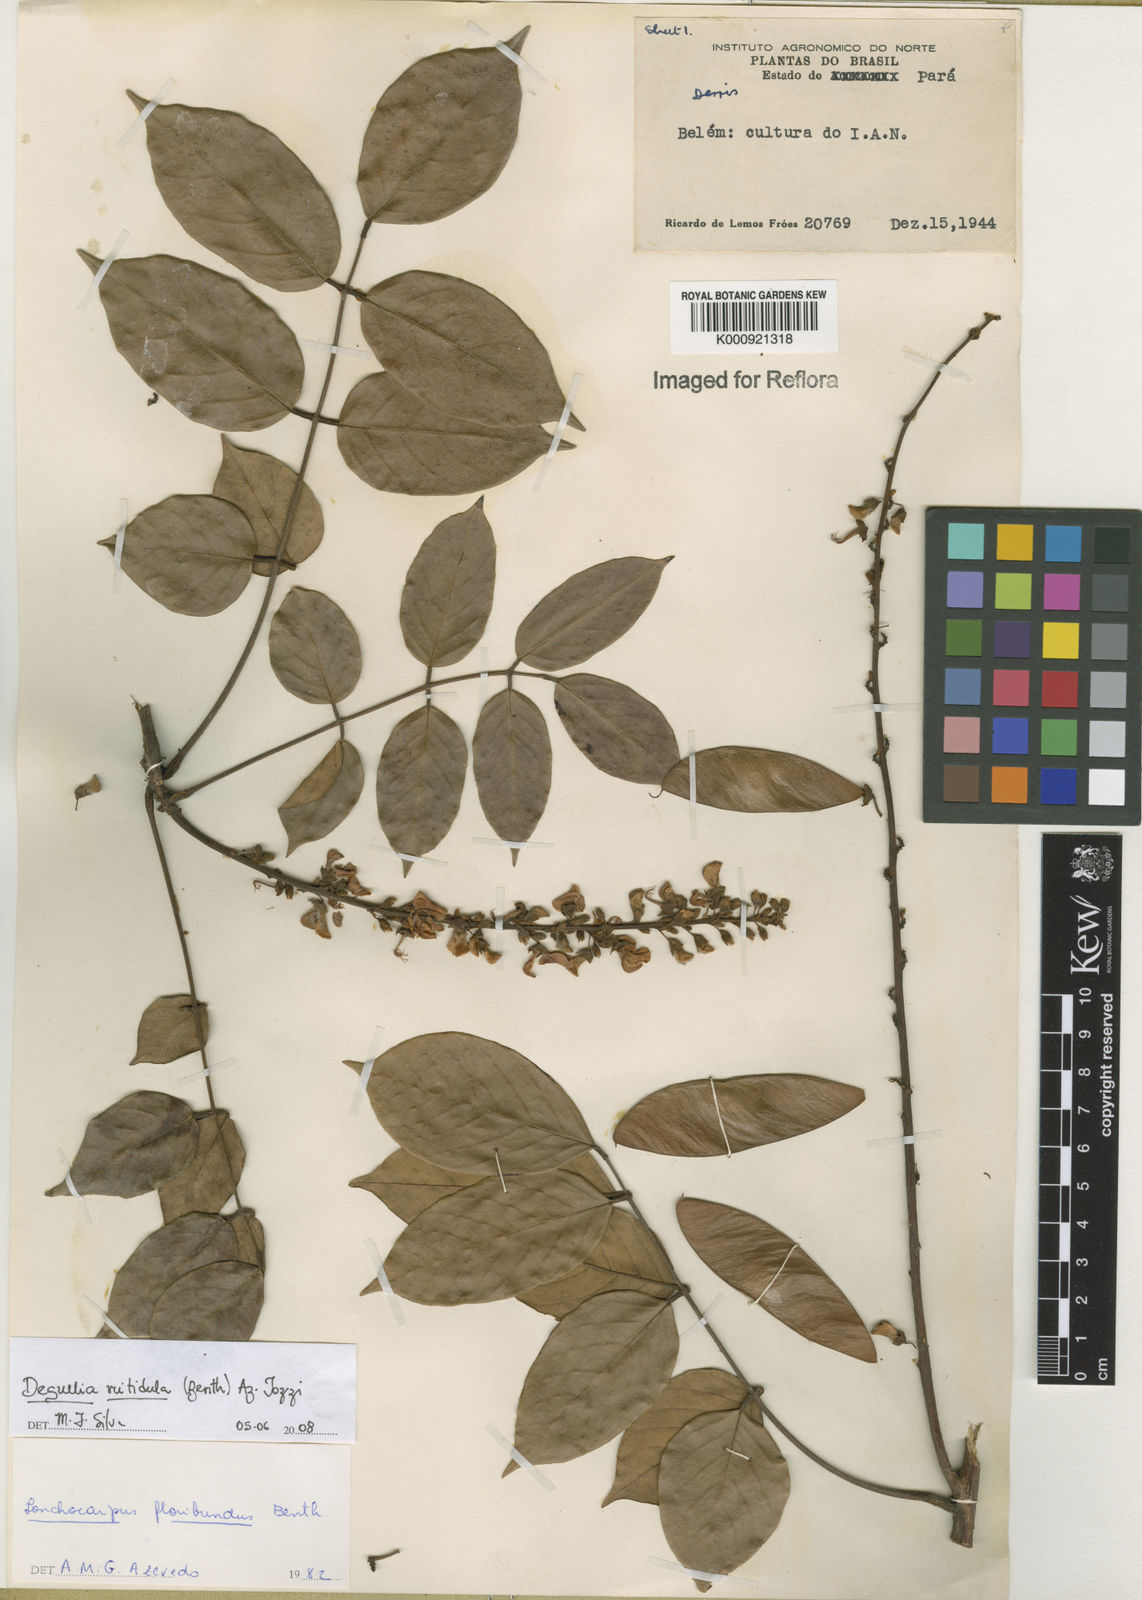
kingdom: Plantae
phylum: Tracheophyta
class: Magnoliopsida
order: Fabales
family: Fabaceae
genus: Deguelia
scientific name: Deguelia nitidula
